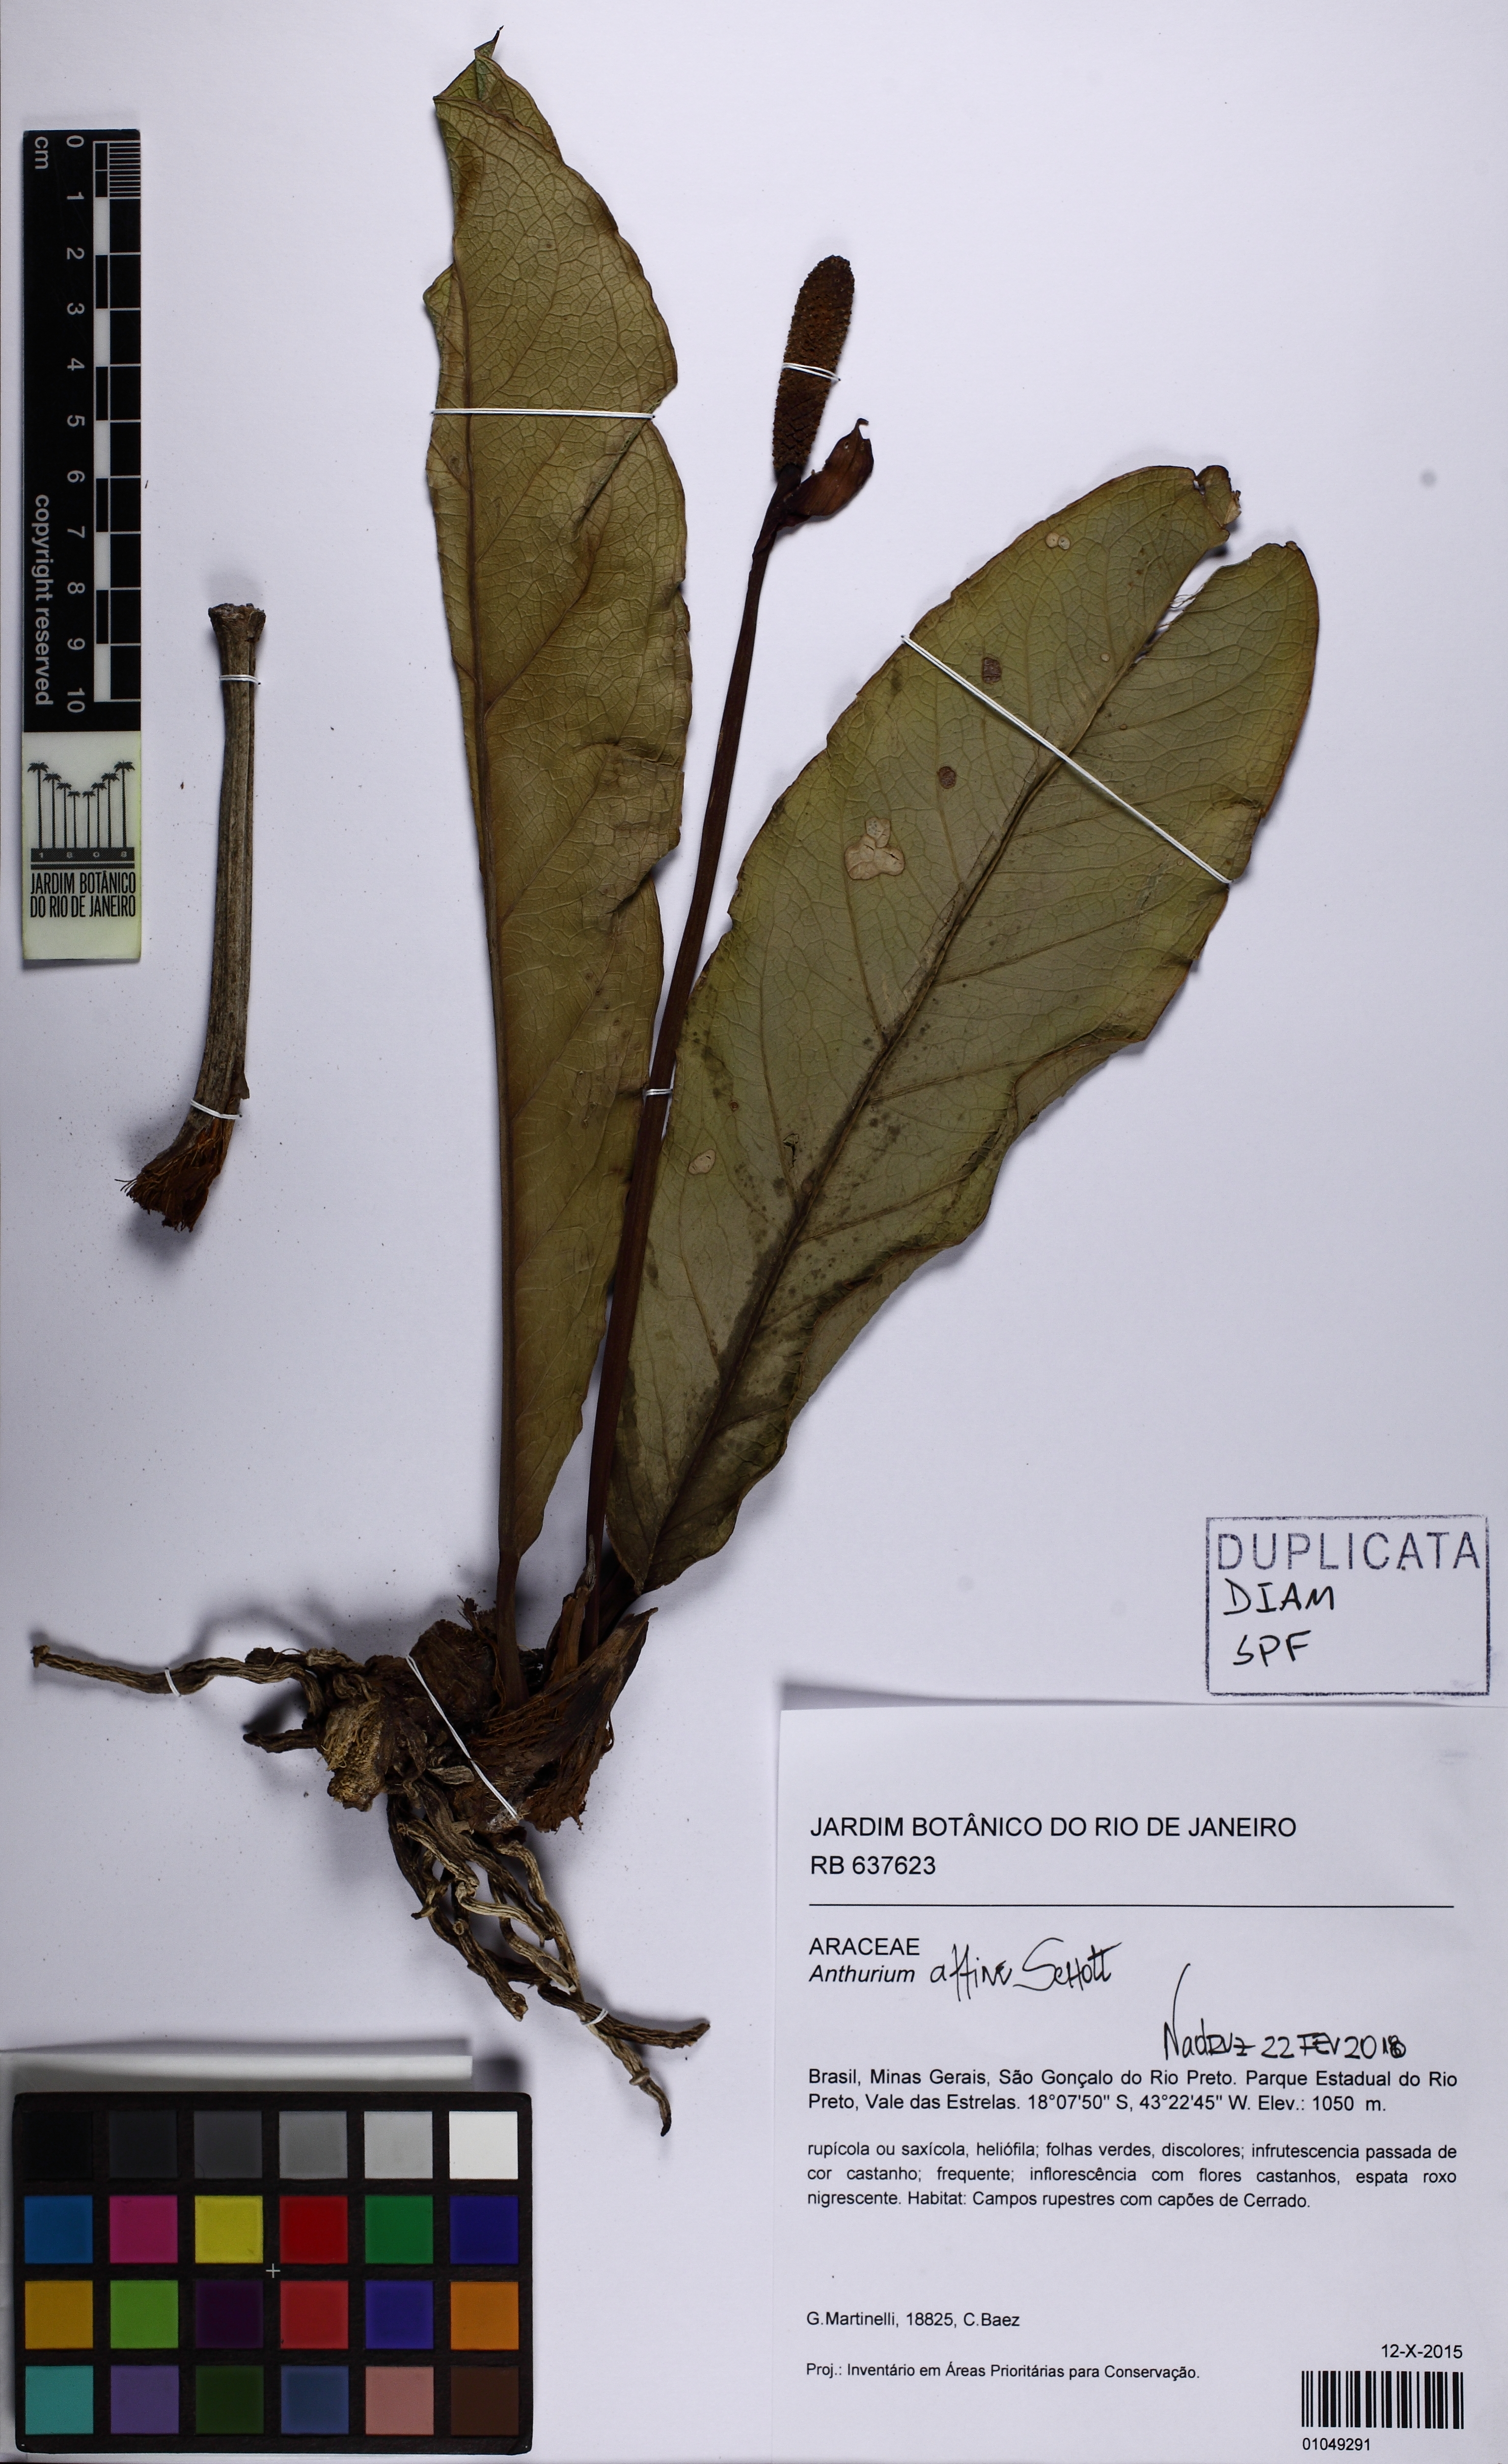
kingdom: Plantae
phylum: Tracheophyta
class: Liliopsida
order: Alismatales
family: Araceae
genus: Anthurium
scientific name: Anthurium affine
